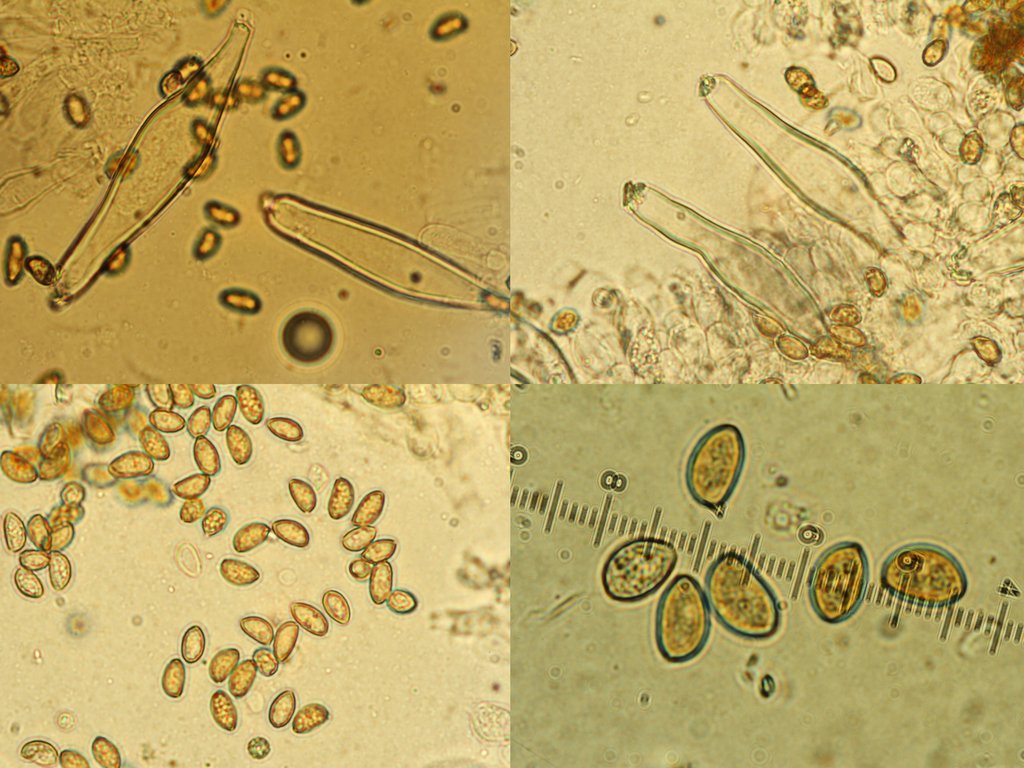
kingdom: Fungi
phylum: Basidiomycota
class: Agaricomycetes
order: Agaricales
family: Inocybaceae
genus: Inocybe
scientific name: Inocybe
